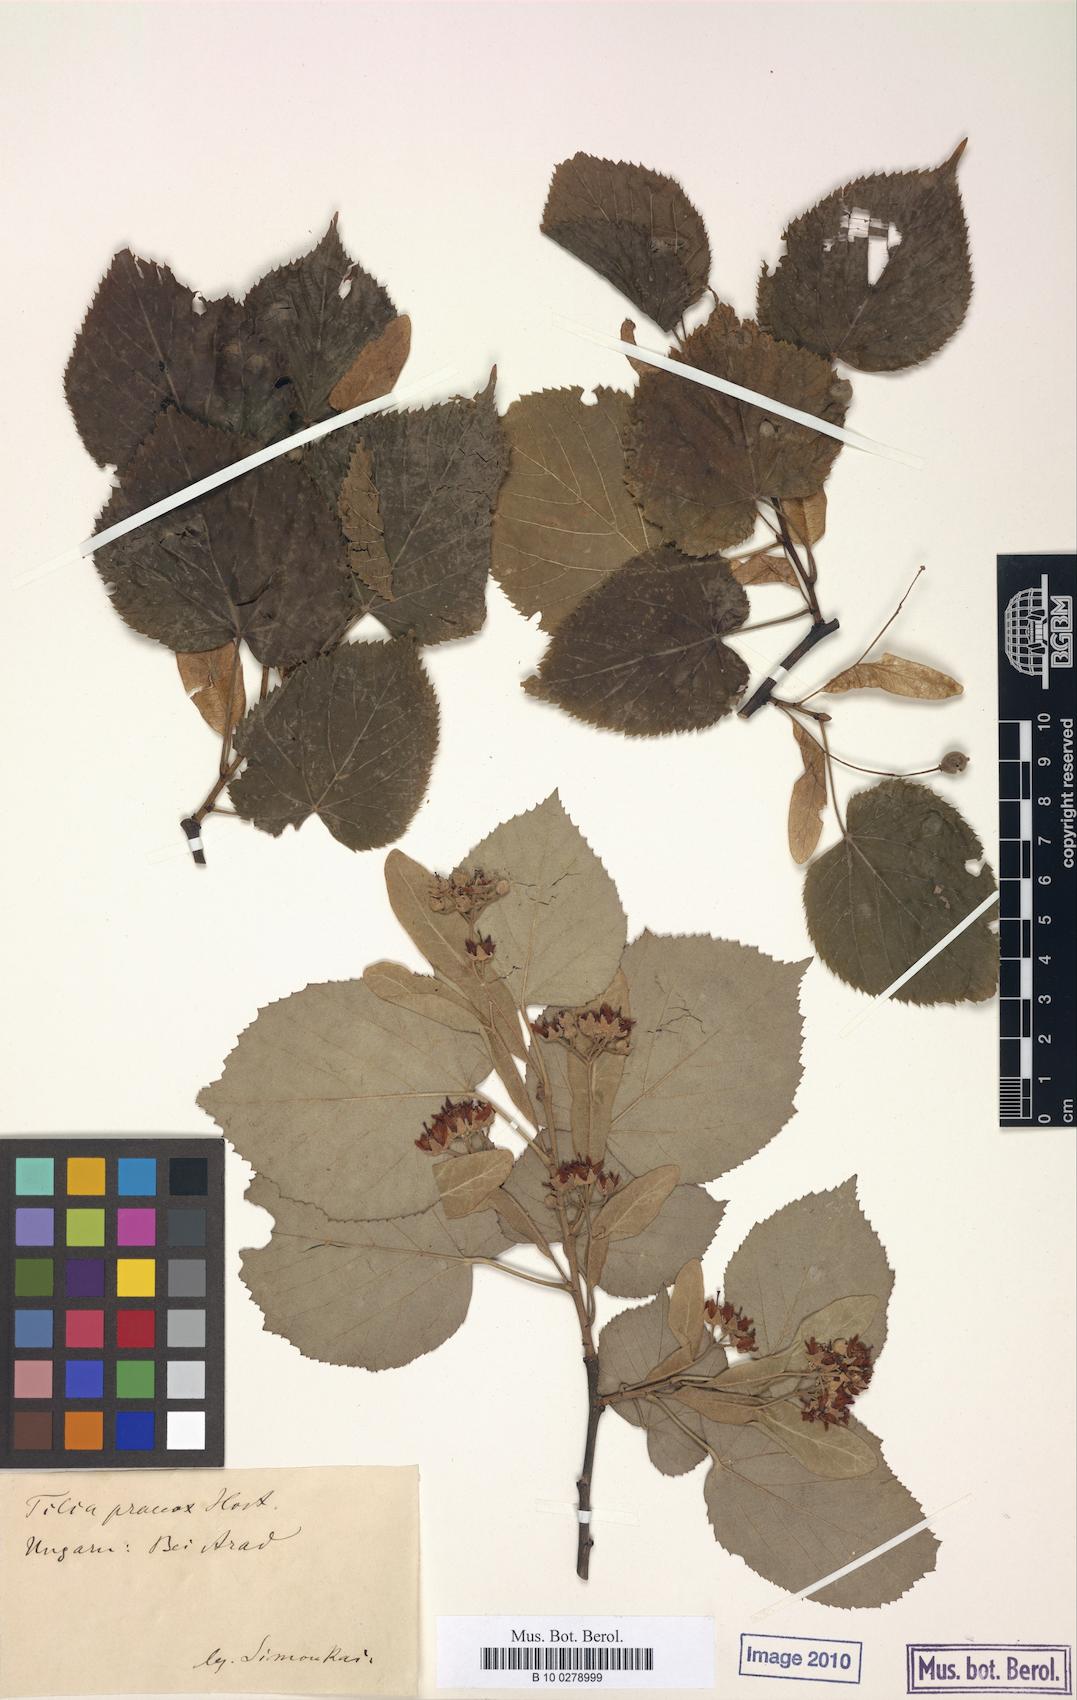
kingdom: Plantae
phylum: Tracheophyta
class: Magnoliopsida
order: Malvales
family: Malvaceae
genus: Tilia
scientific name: Tilia flaccida
